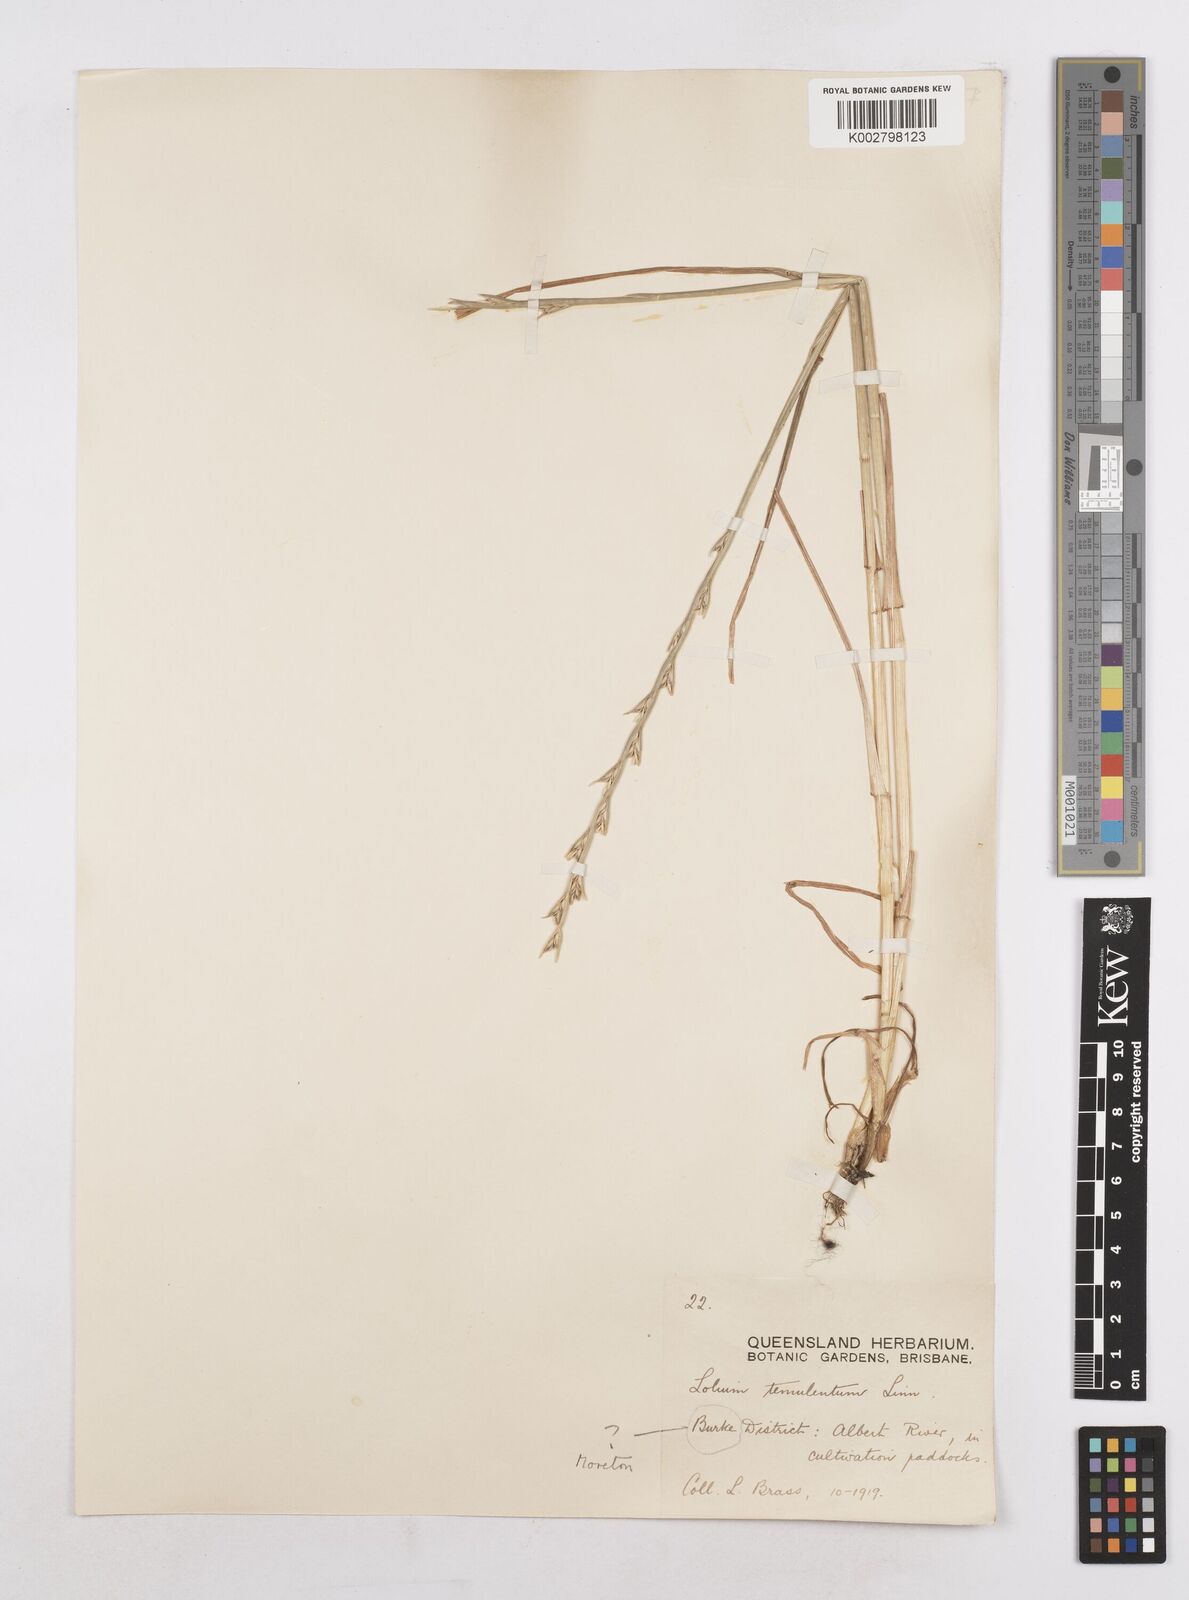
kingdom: Plantae
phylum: Tracheophyta
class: Liliopsida
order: Poales
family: Poaceae
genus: Lolium
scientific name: Lolium temulentum
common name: Darnel
